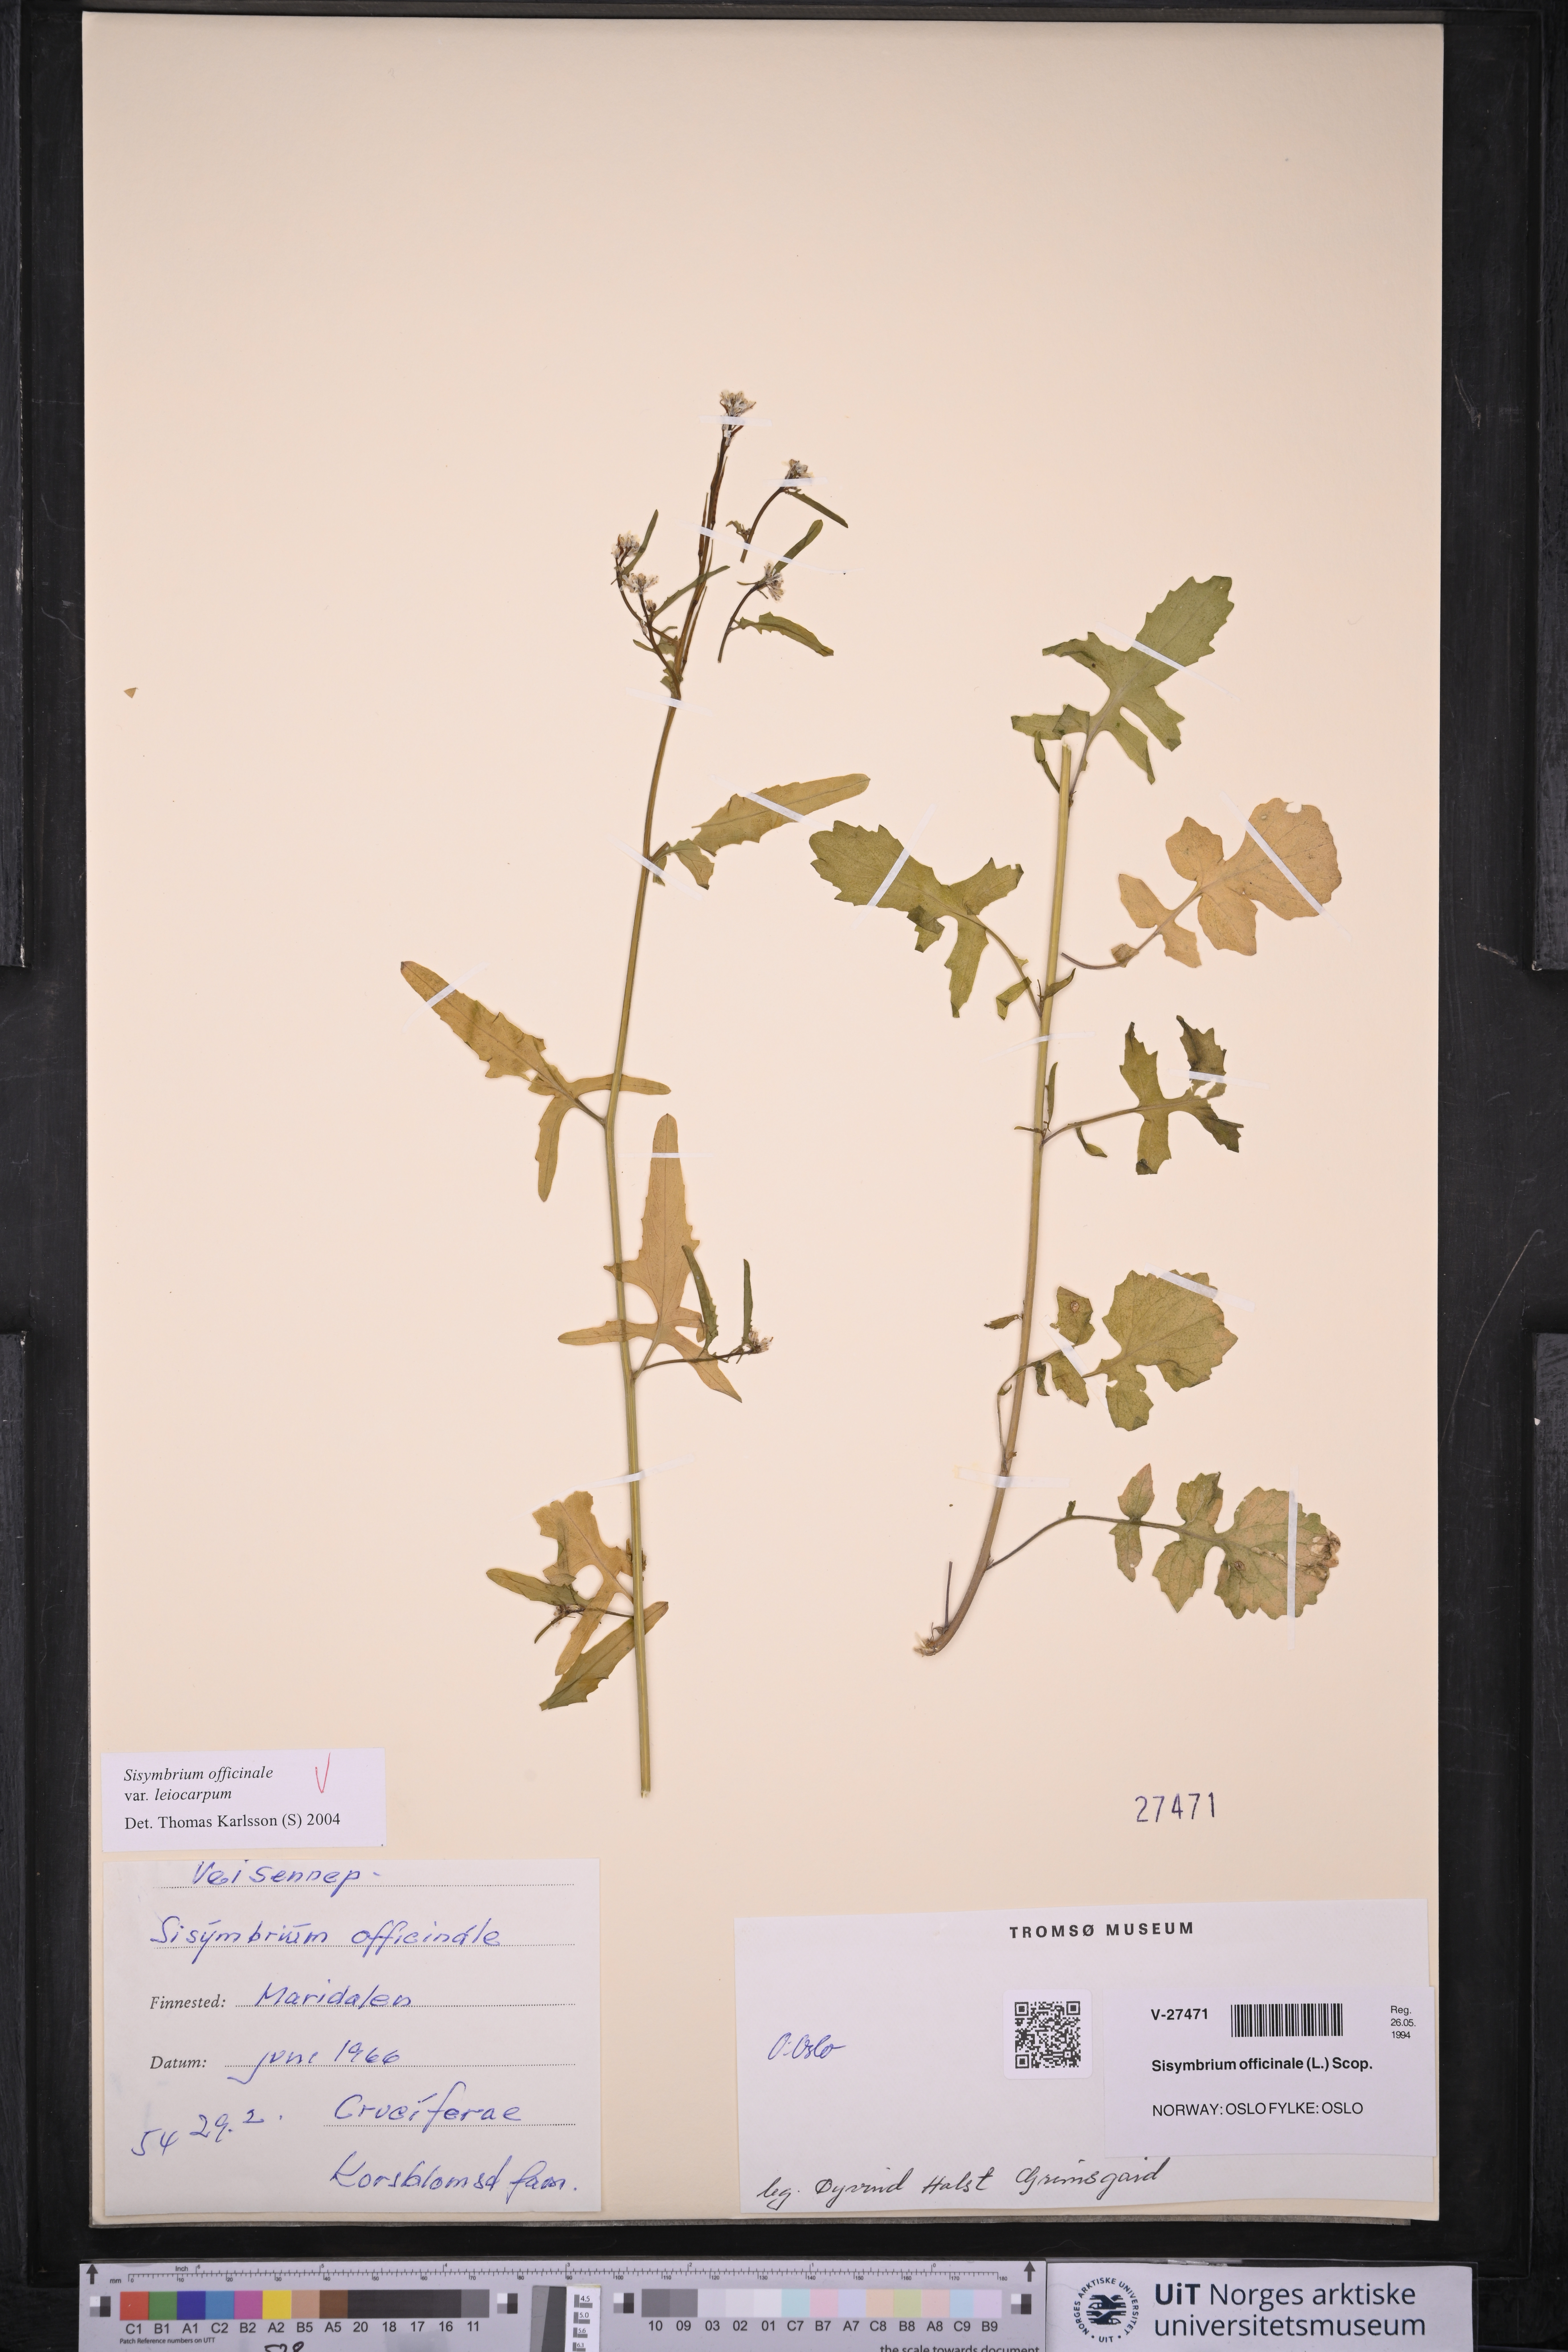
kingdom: Plantae
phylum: Tracheophyta
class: Magnoliopsida
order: Brassicales
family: Brassicaceae
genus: Sisymbrium
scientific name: Sisymbrium officinale
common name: Hedge mustard
